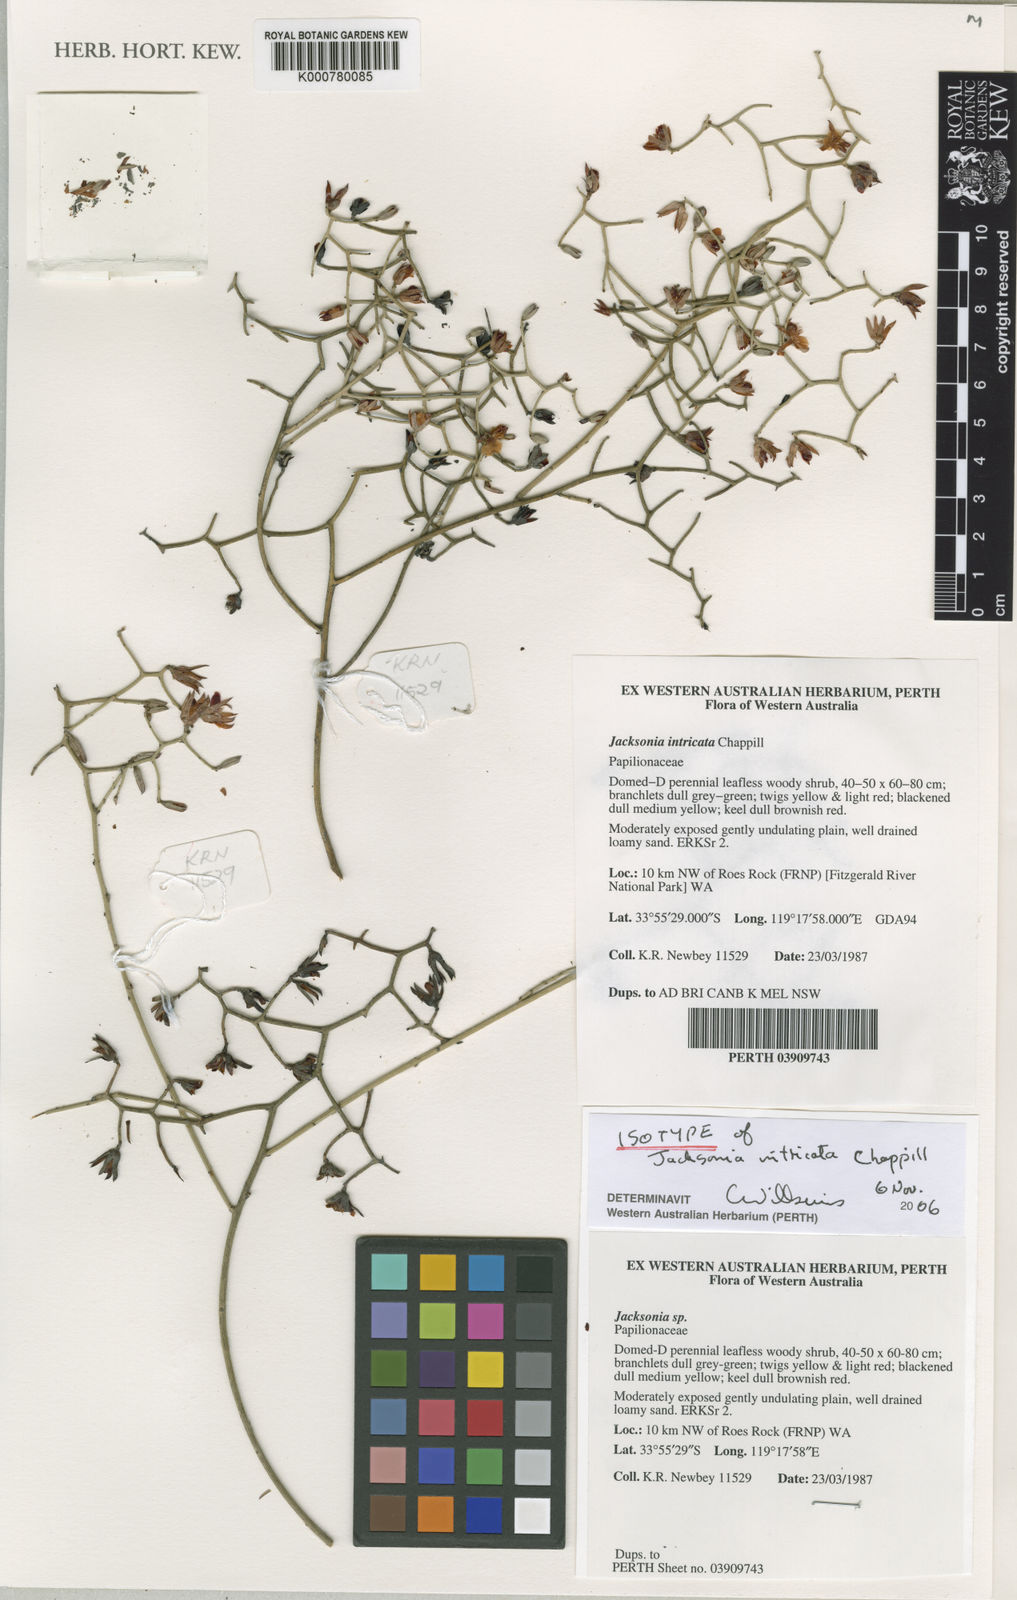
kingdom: Plantae
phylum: Tracheophyta
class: Magnoliopsida
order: Fabales
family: Fabaceae
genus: Jacksonia
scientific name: Jacksonia intricata
